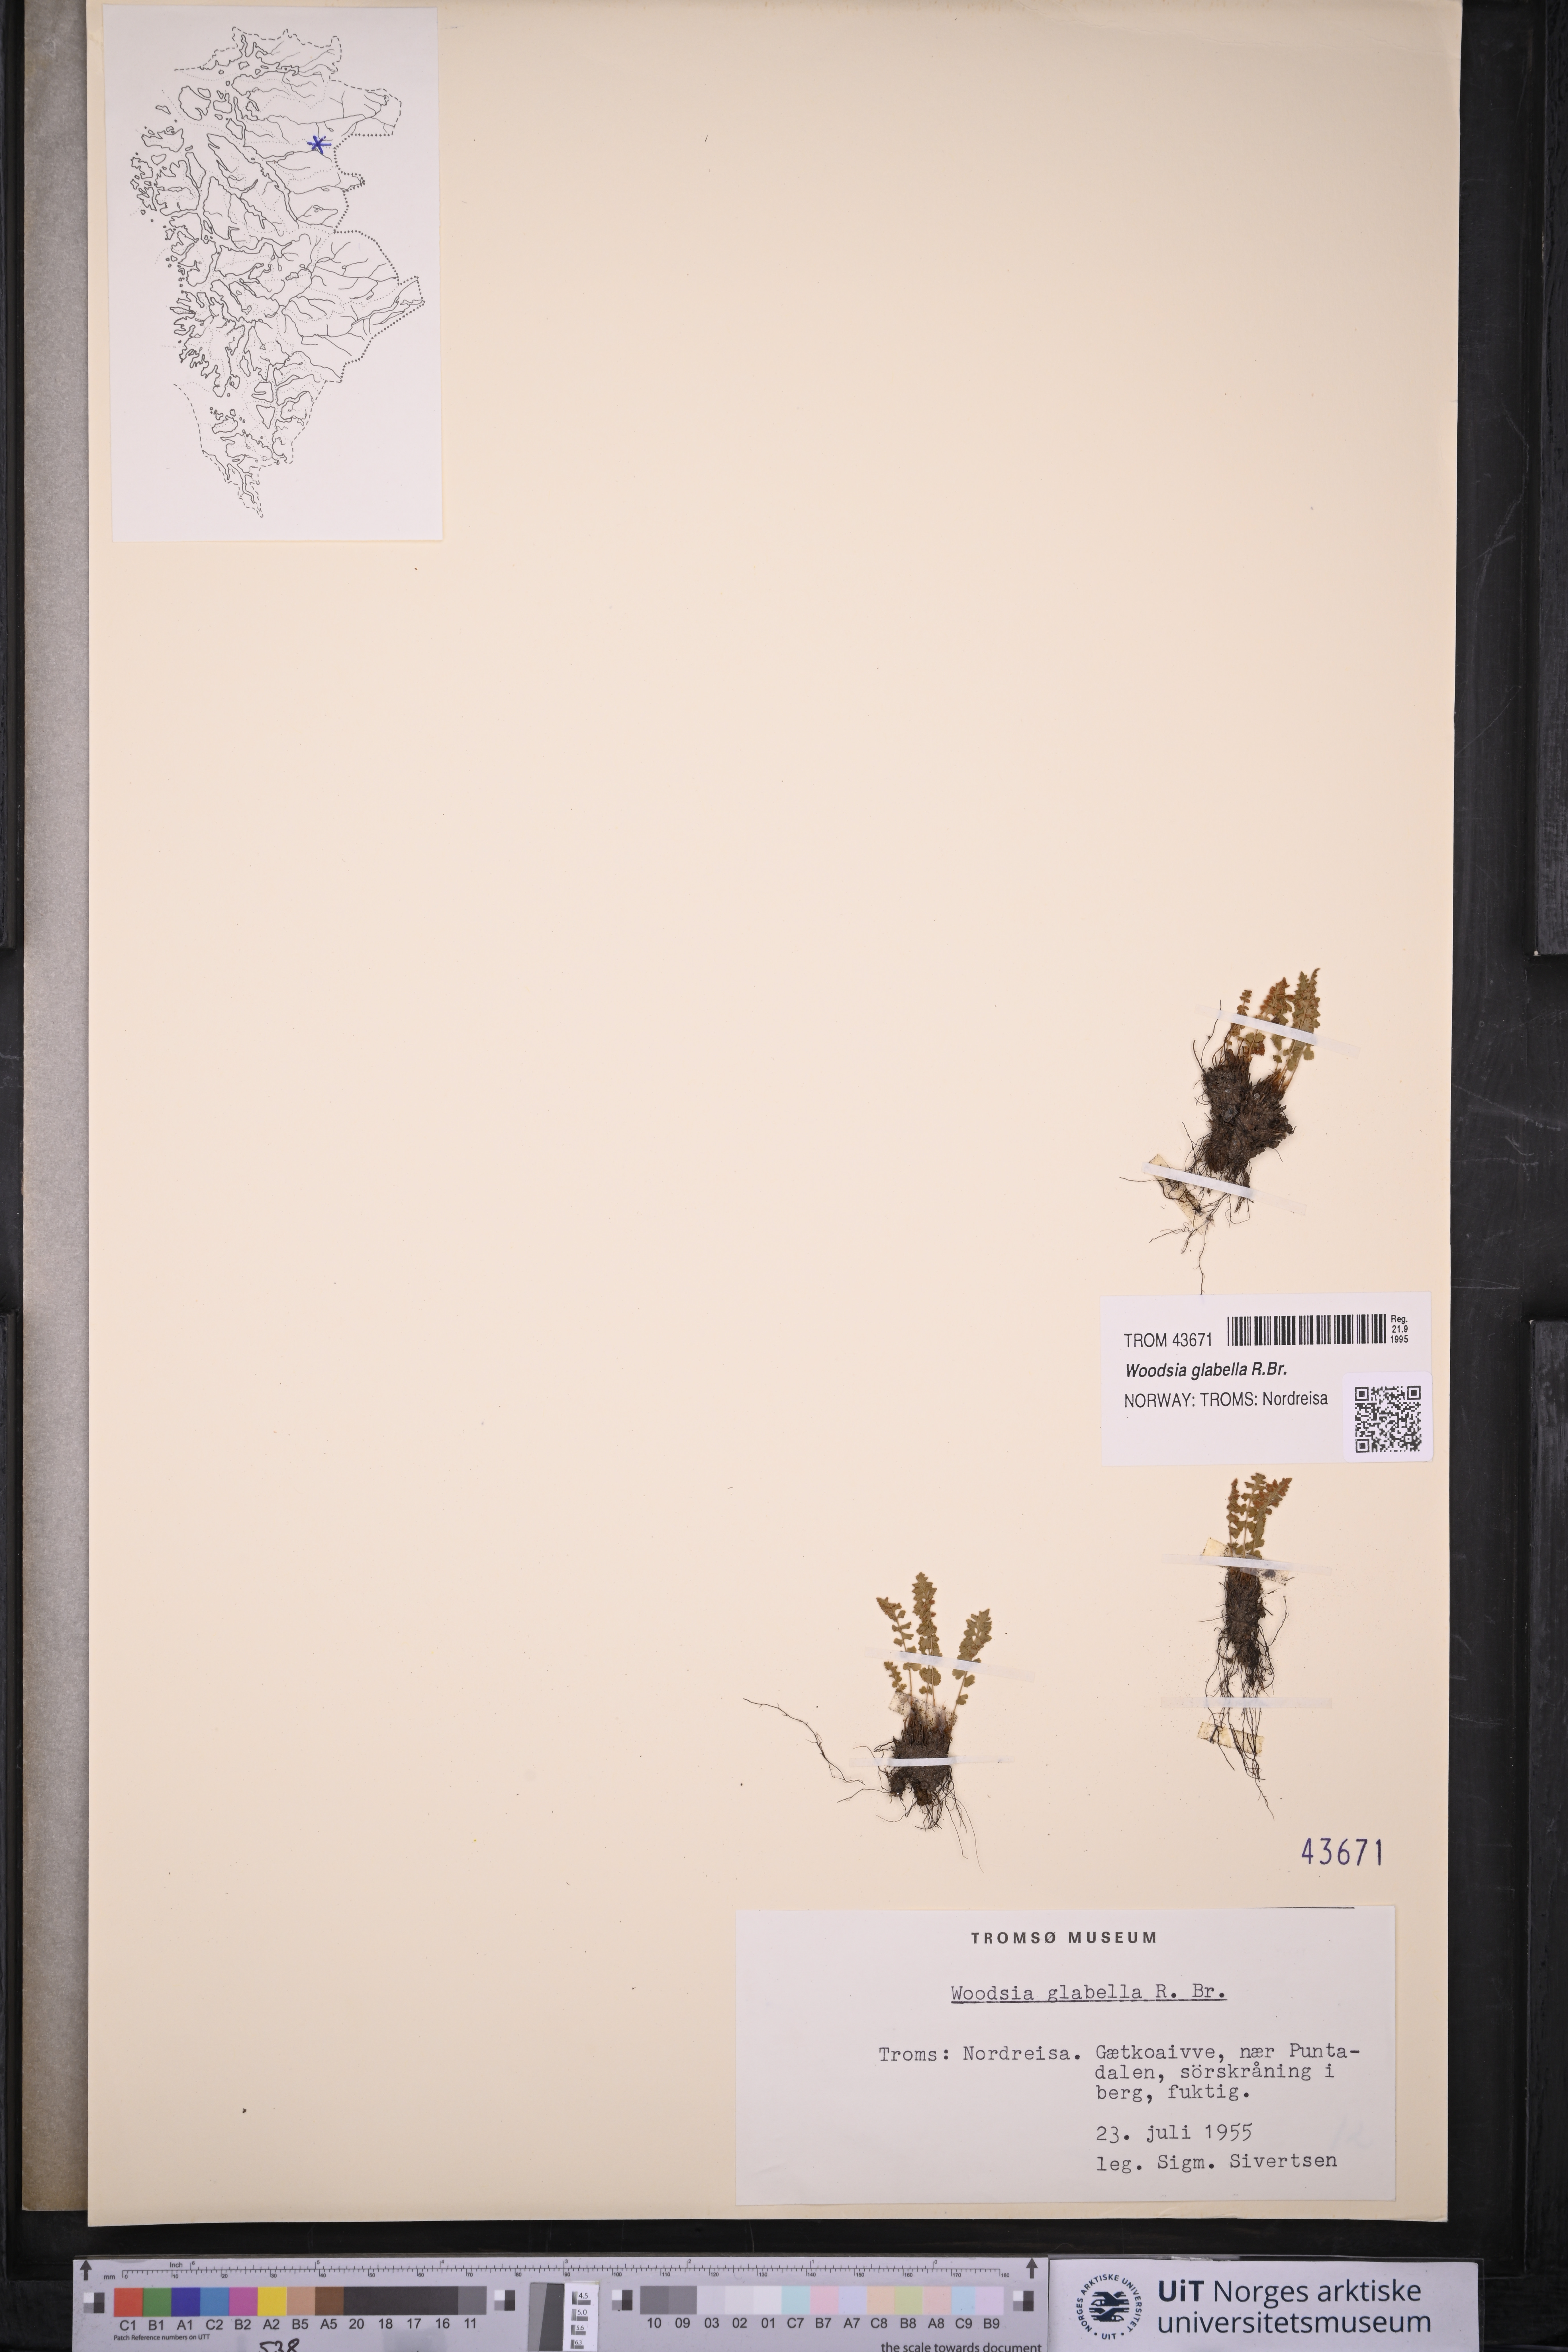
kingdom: Plantae
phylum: Tracheophyta
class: Polypodiopsida
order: Polypodiales
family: Woodsiaceae
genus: Woodsia
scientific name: Woodsia glabella
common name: Smooth woodsia
